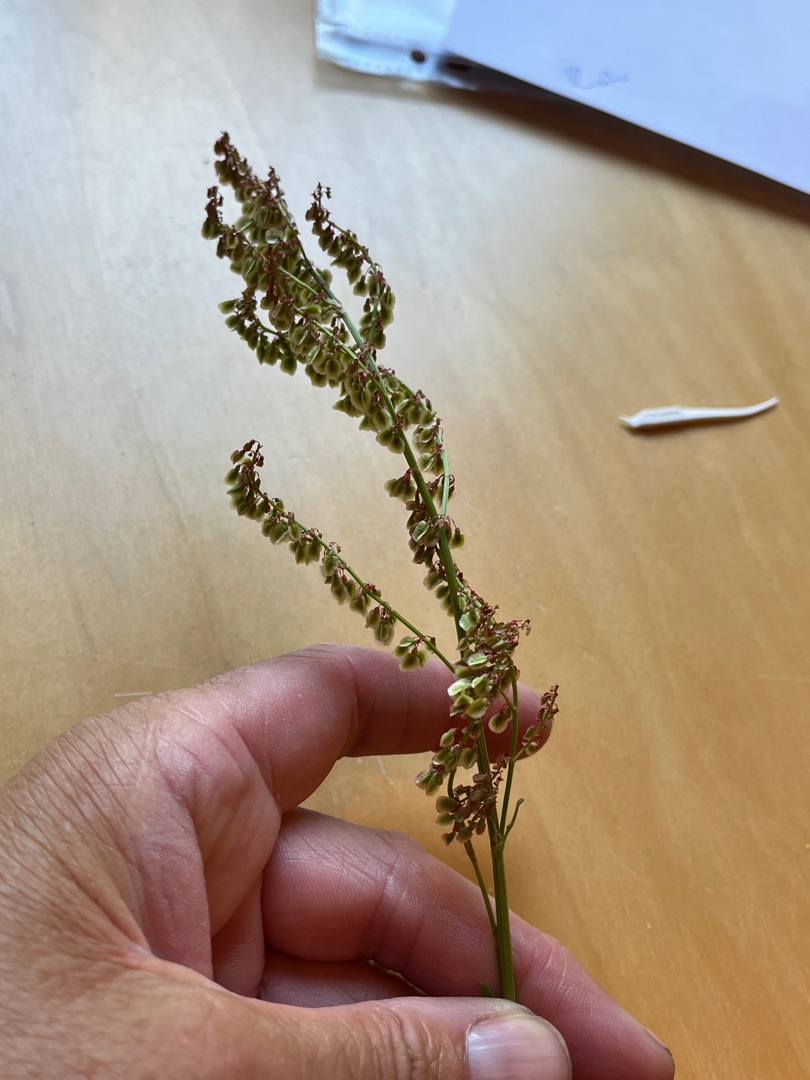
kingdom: Plantae
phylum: Tracheophyta
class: Magnoliopsida
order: Caryophyllales
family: Polygonaceae
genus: Rumex
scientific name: Rumex acetosa
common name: Almindelig syre
